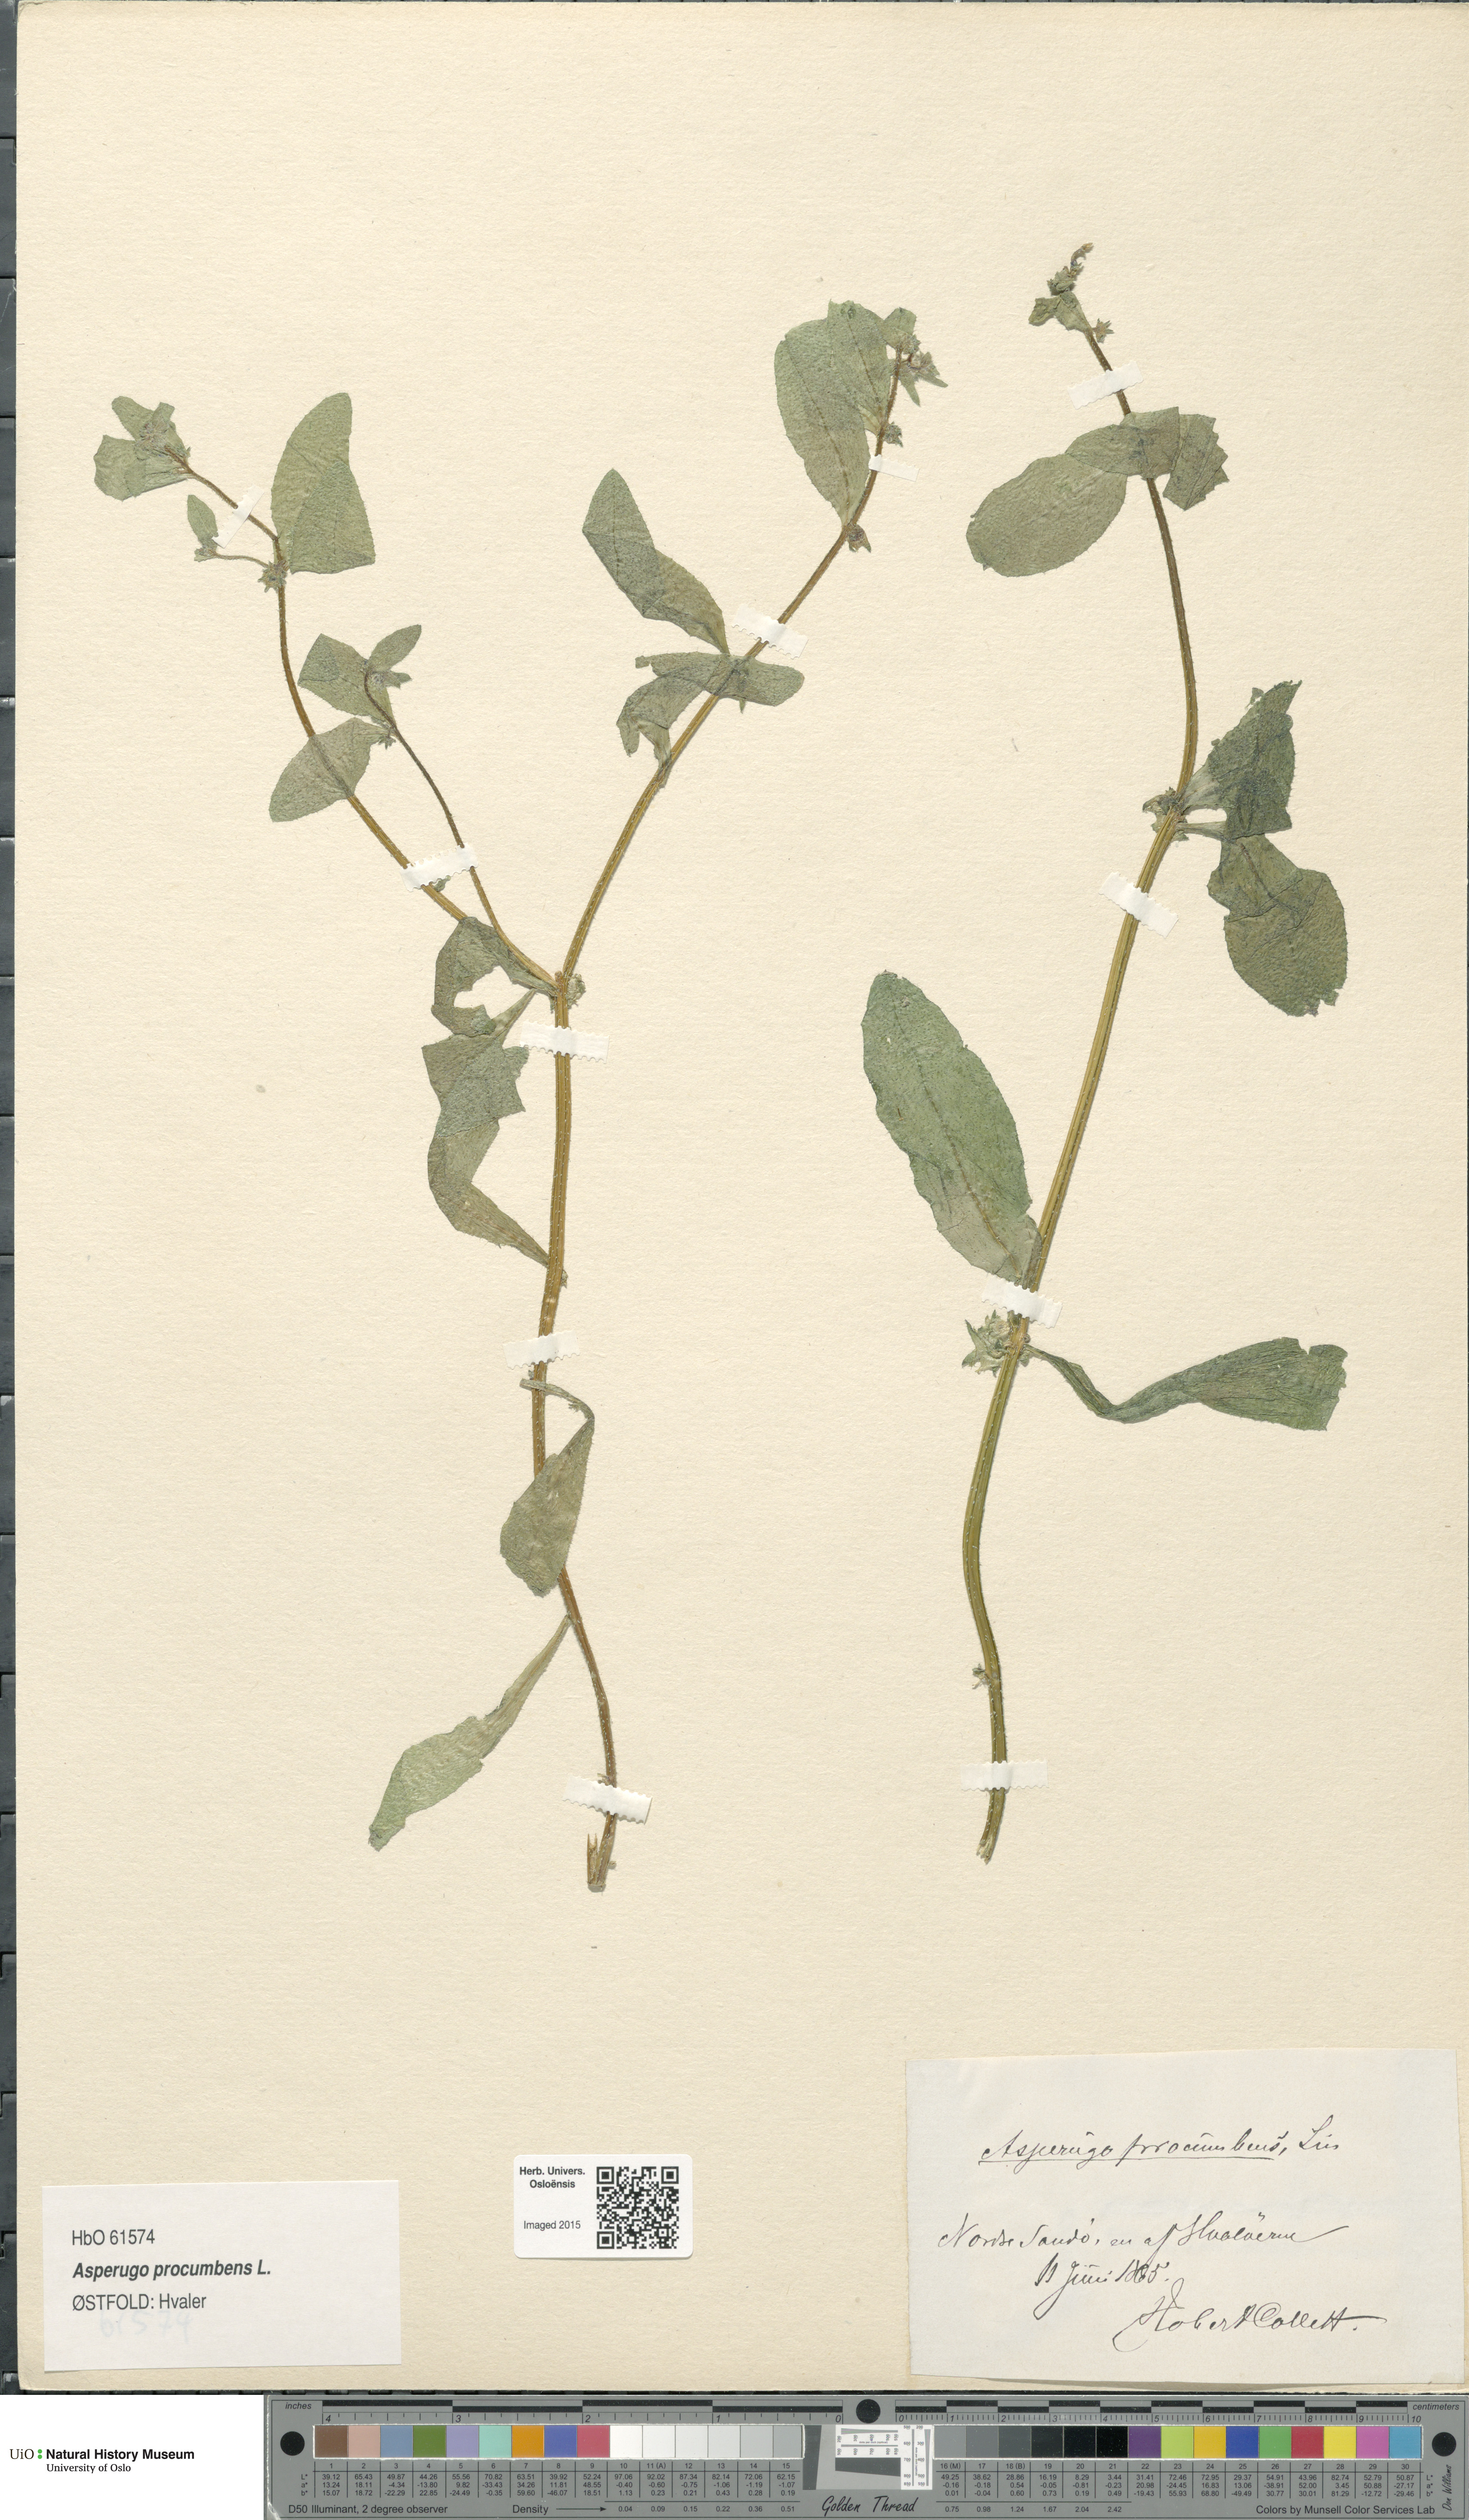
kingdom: Plantae
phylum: Tracheophyta
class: Magnoliopsida
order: Boraginales
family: Boraginaceae
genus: Asperugo
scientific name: Asperugo procumbens
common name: Madwort
